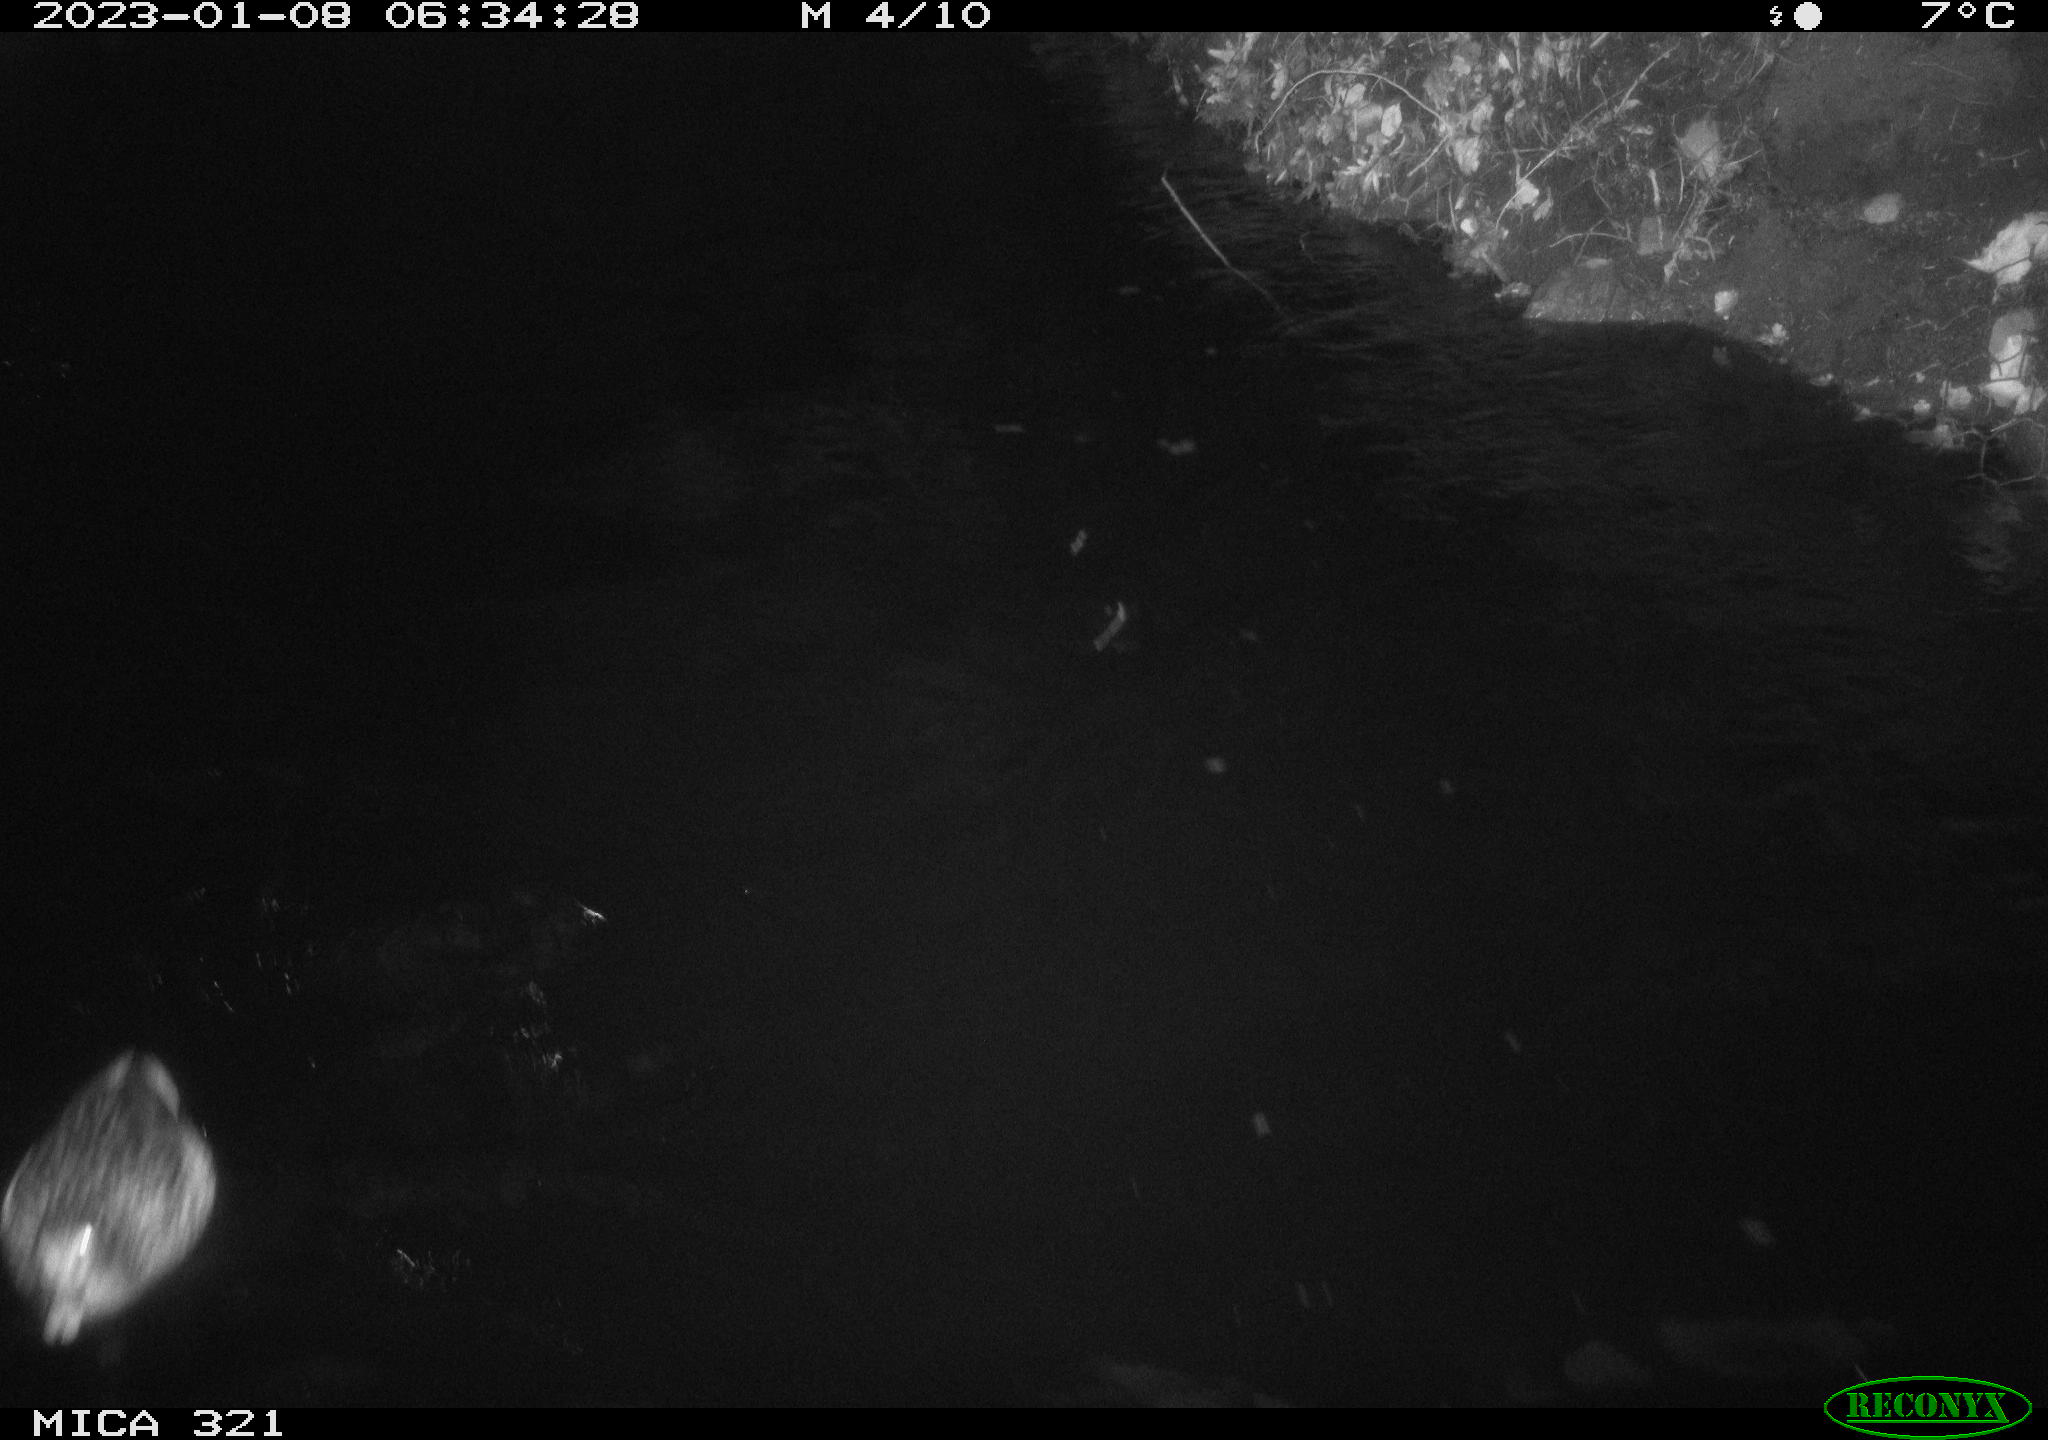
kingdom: Animalia
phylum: Chordata
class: Aves
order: Anseriformes
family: Anatidae
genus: Anas
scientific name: Anas
